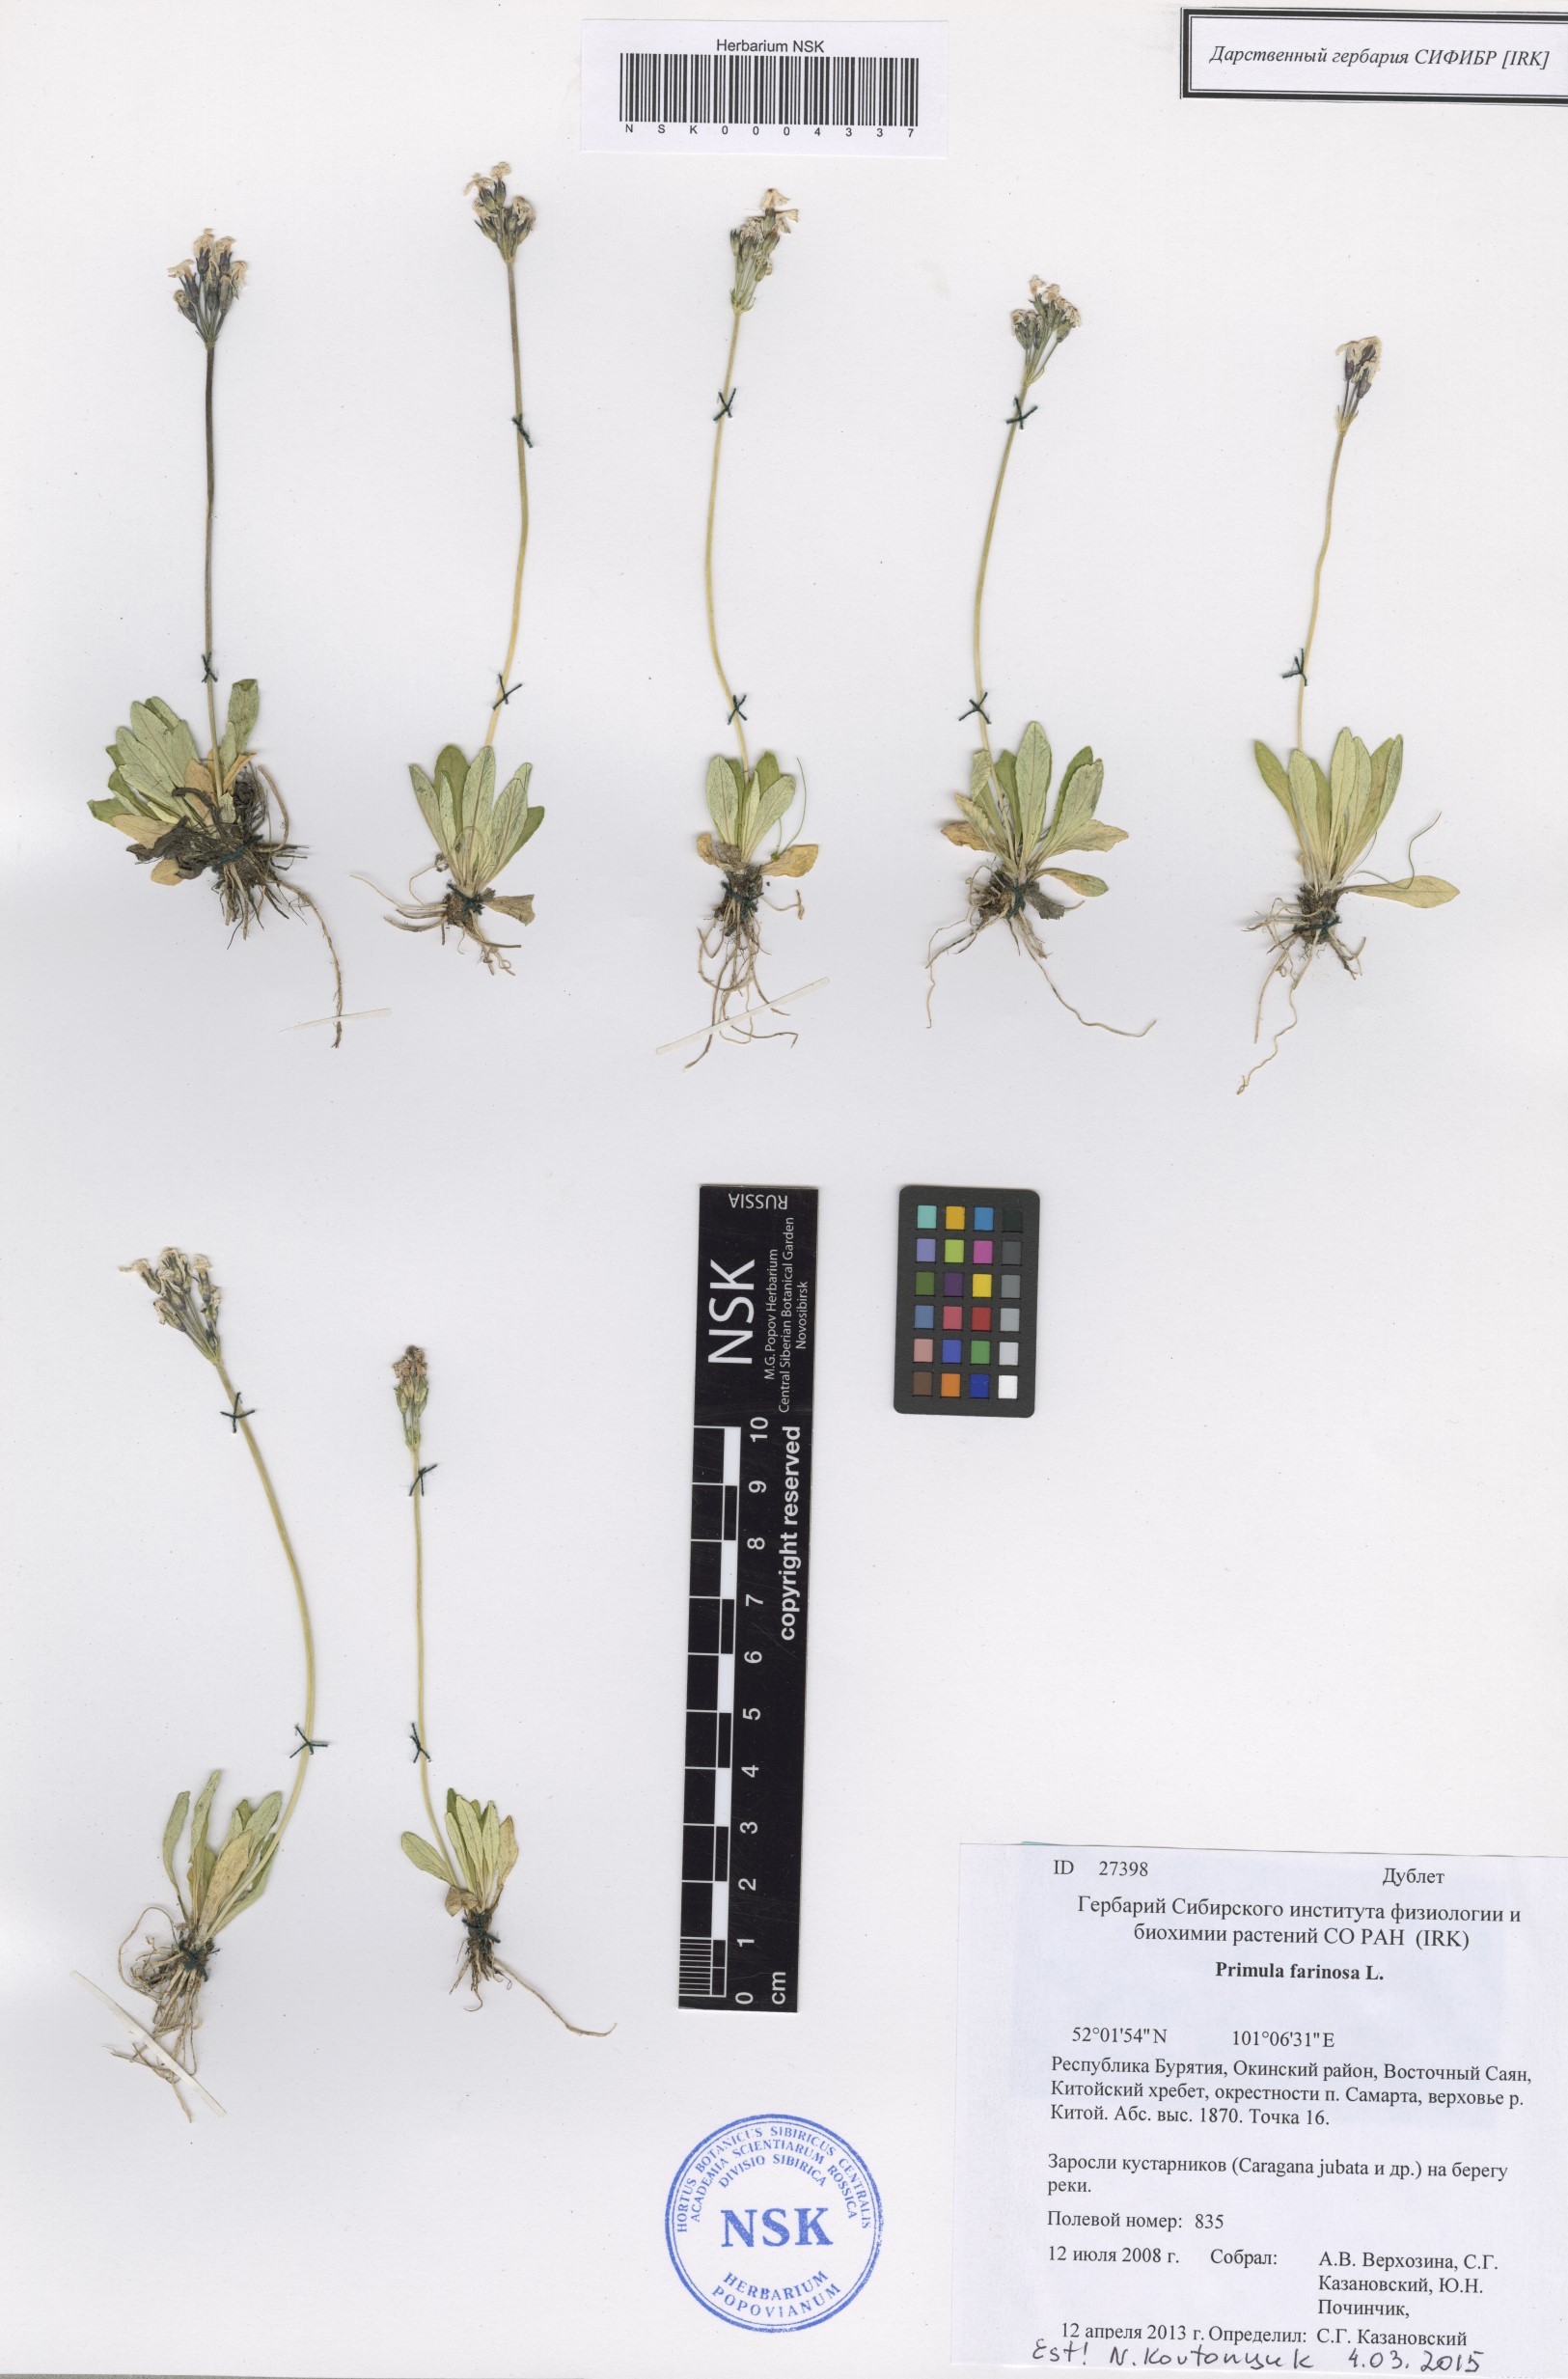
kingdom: Plantae
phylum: Tracheophyta
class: Magnoliopsida
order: Ericales
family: Primulaceae
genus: Primula
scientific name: Primula farinosa
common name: Bird's-eye primrose
